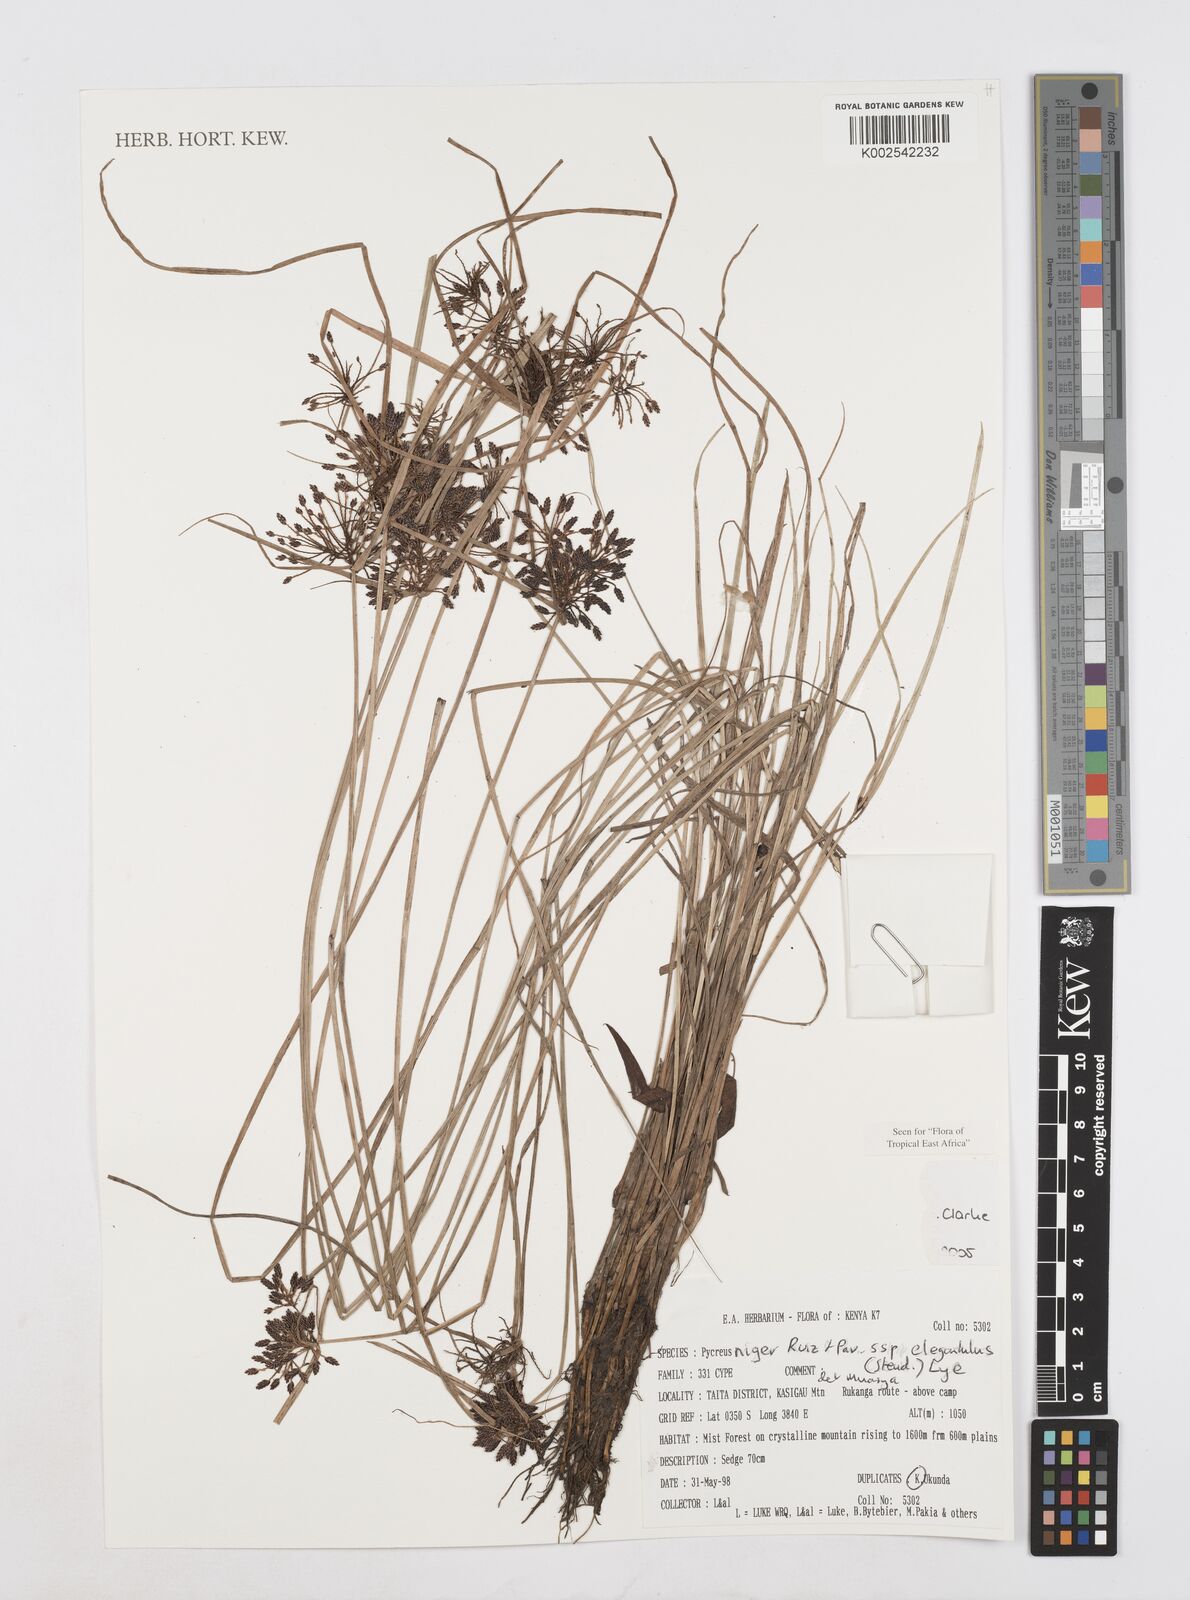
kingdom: Plantae
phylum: Tracheophyta
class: Liliopsida
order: Poales
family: Cyperaceae
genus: Cyperus
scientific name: Cyperus
